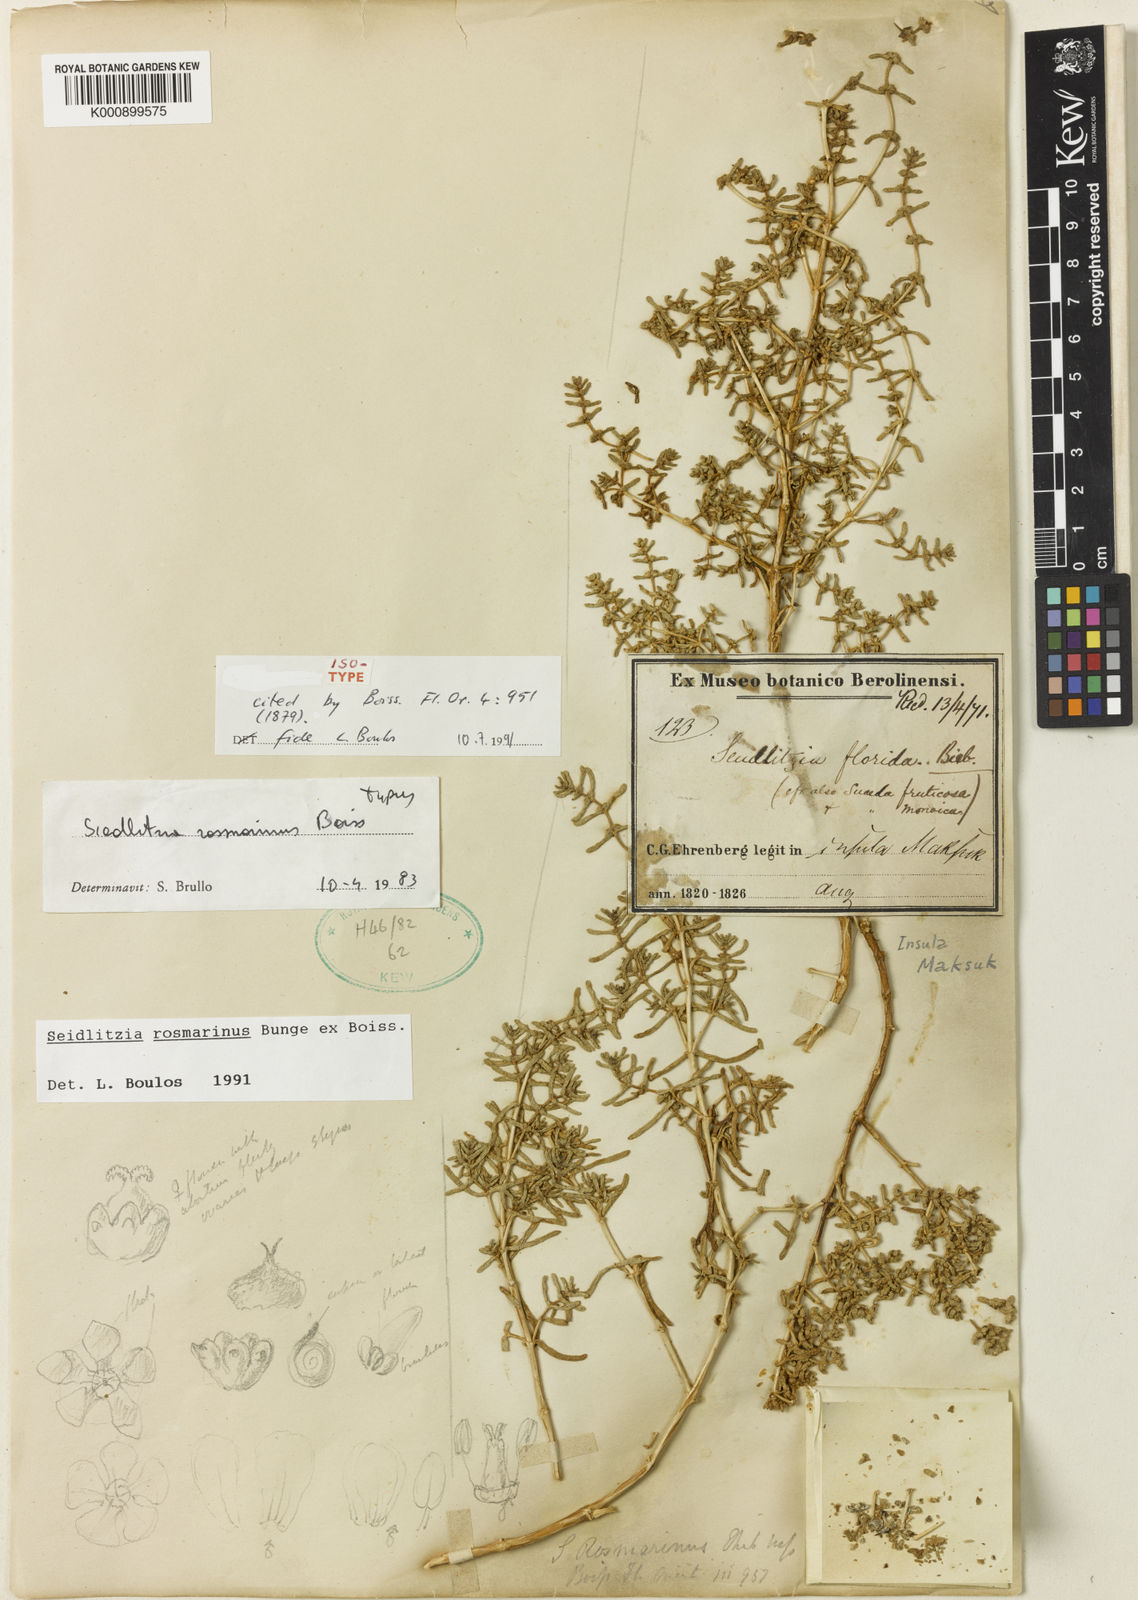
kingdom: Plantae
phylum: Tracheophyta
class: Magnoliopsida
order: Caryophyllales
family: Amaranthaceae
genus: Soda
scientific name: Soda rosmarinus
